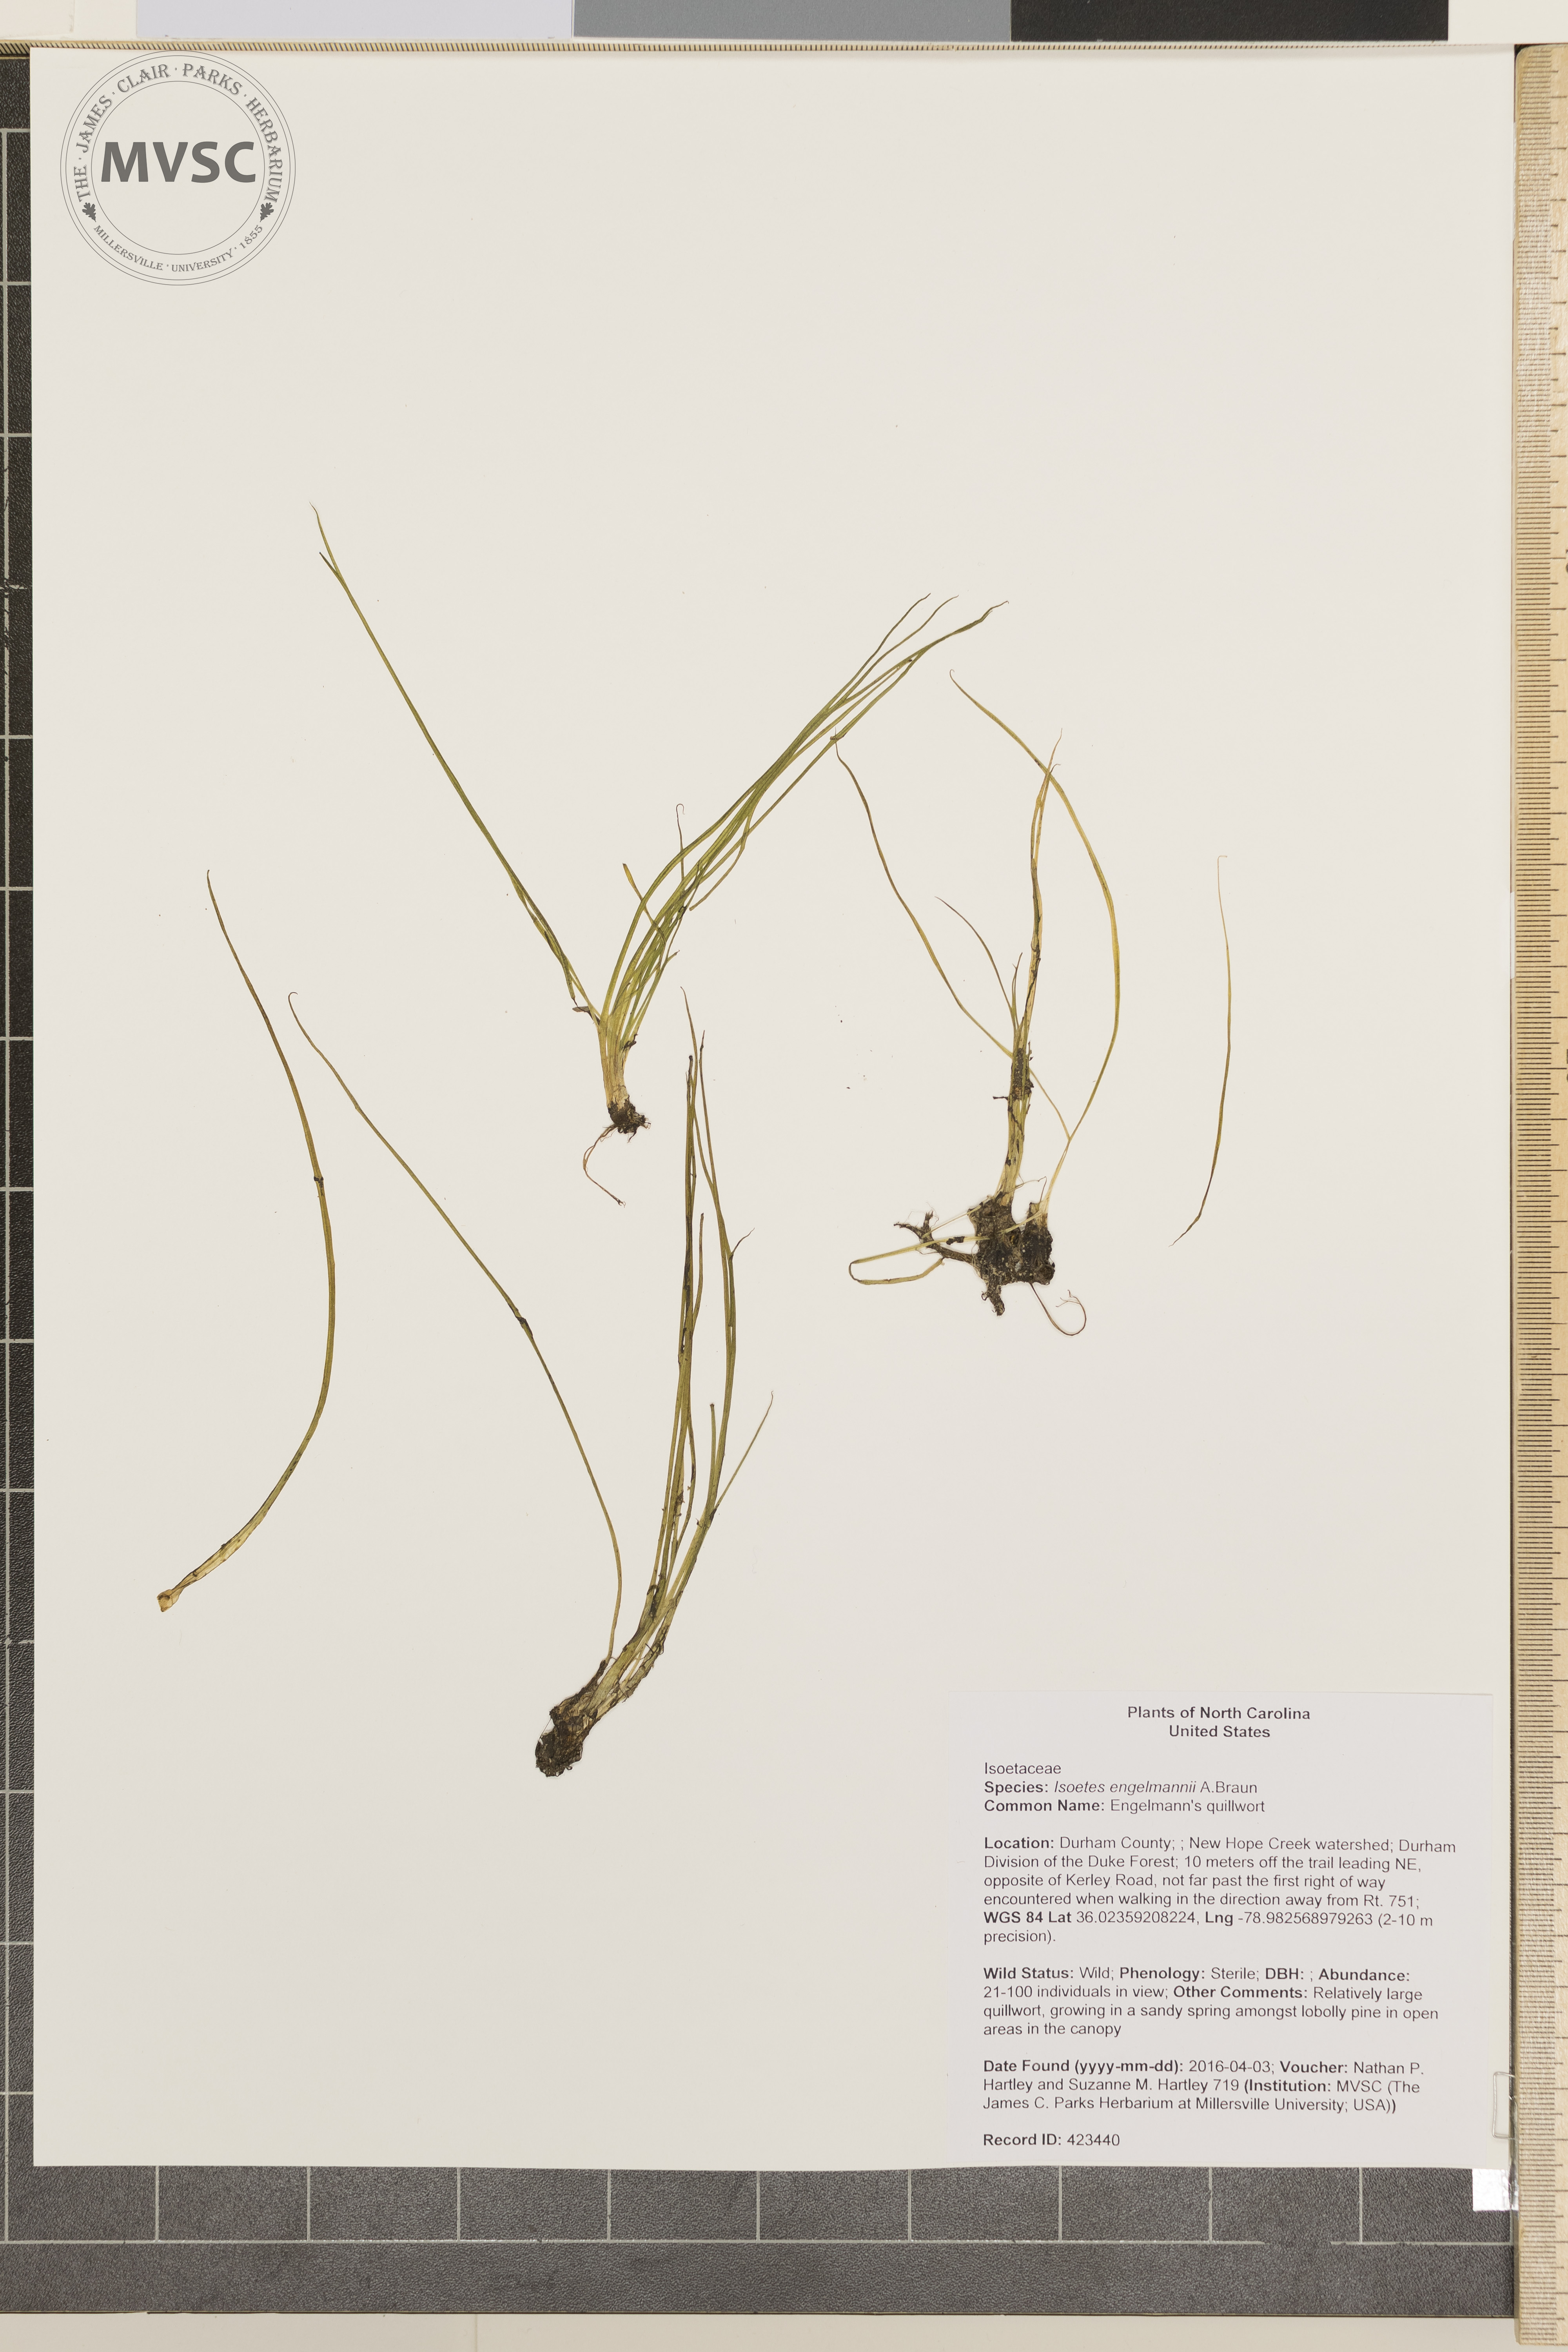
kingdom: Plantae
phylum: Tracheophyta
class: Lycopodiopsida
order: Isoetales
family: Isoetaceae
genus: Isoetes
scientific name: Isoetes engelmannii
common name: Engelmann's quillwort
